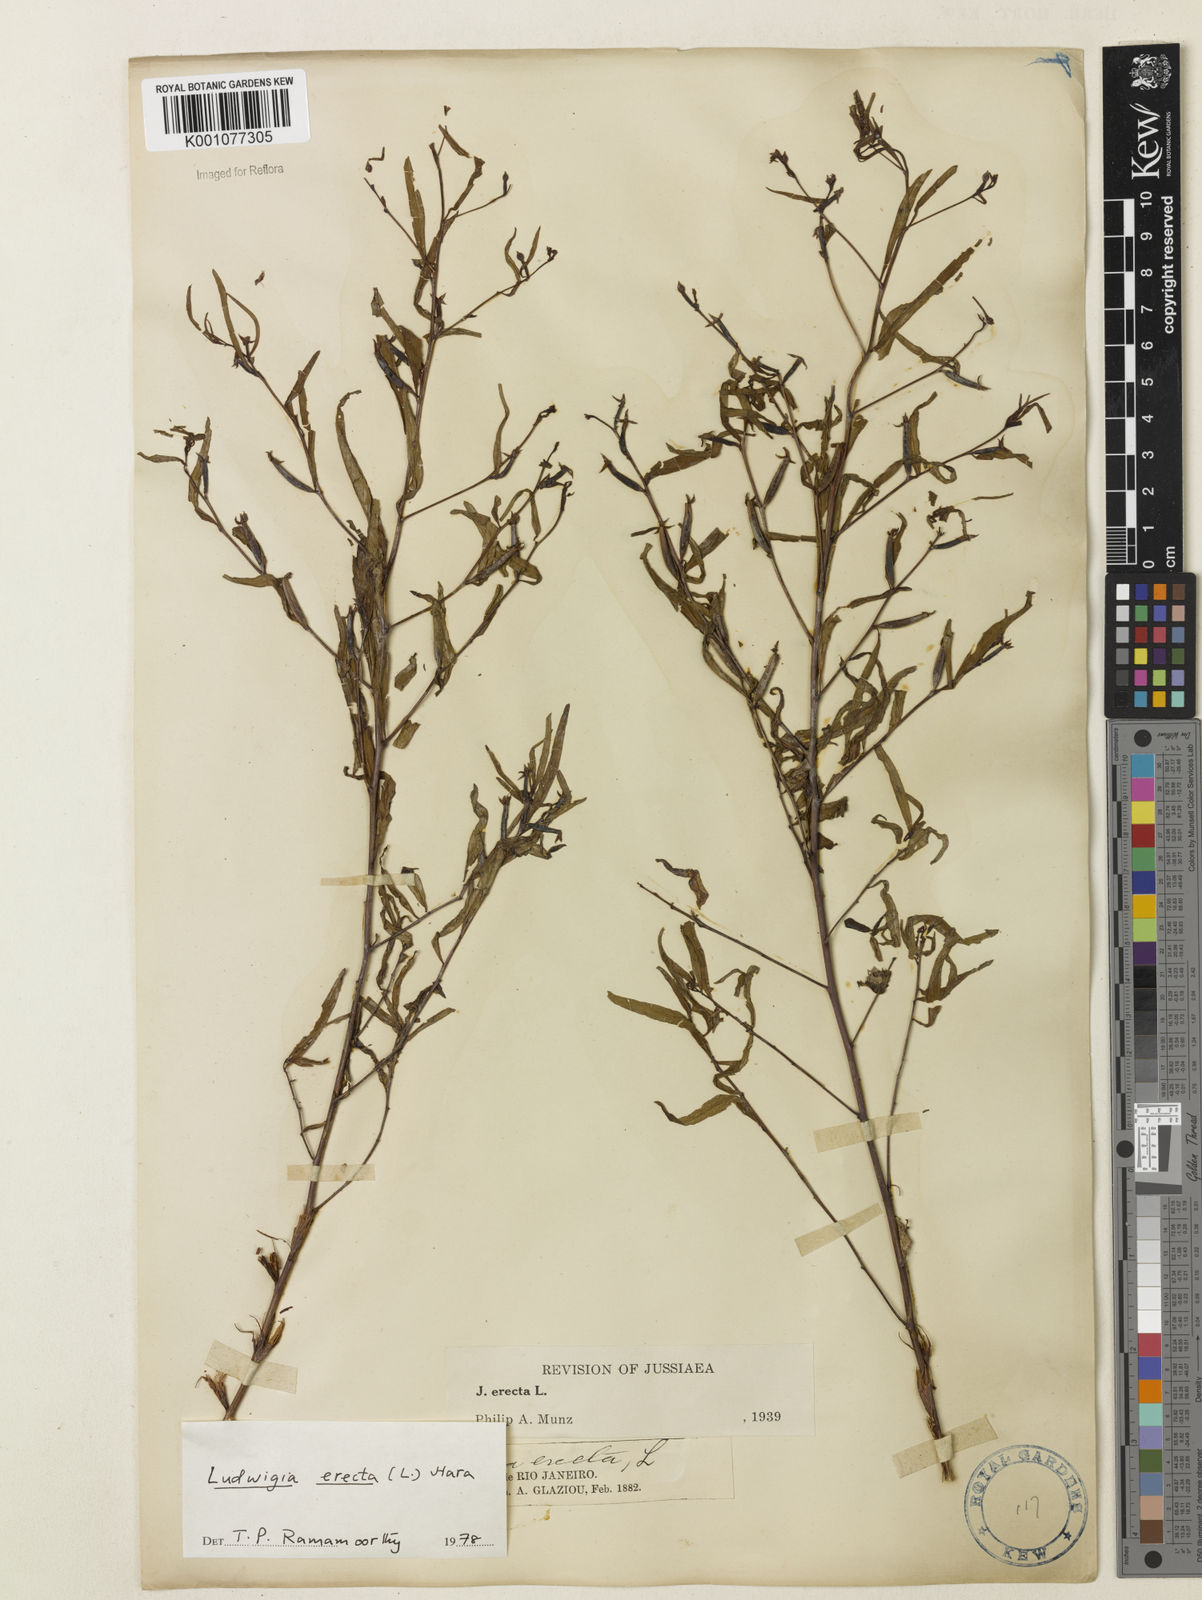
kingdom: Plantae
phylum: Tracheophyta
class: Magnoliopsida
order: Myrtales
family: Onagraceae
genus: Ludwigia
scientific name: Ludwigia erecta
